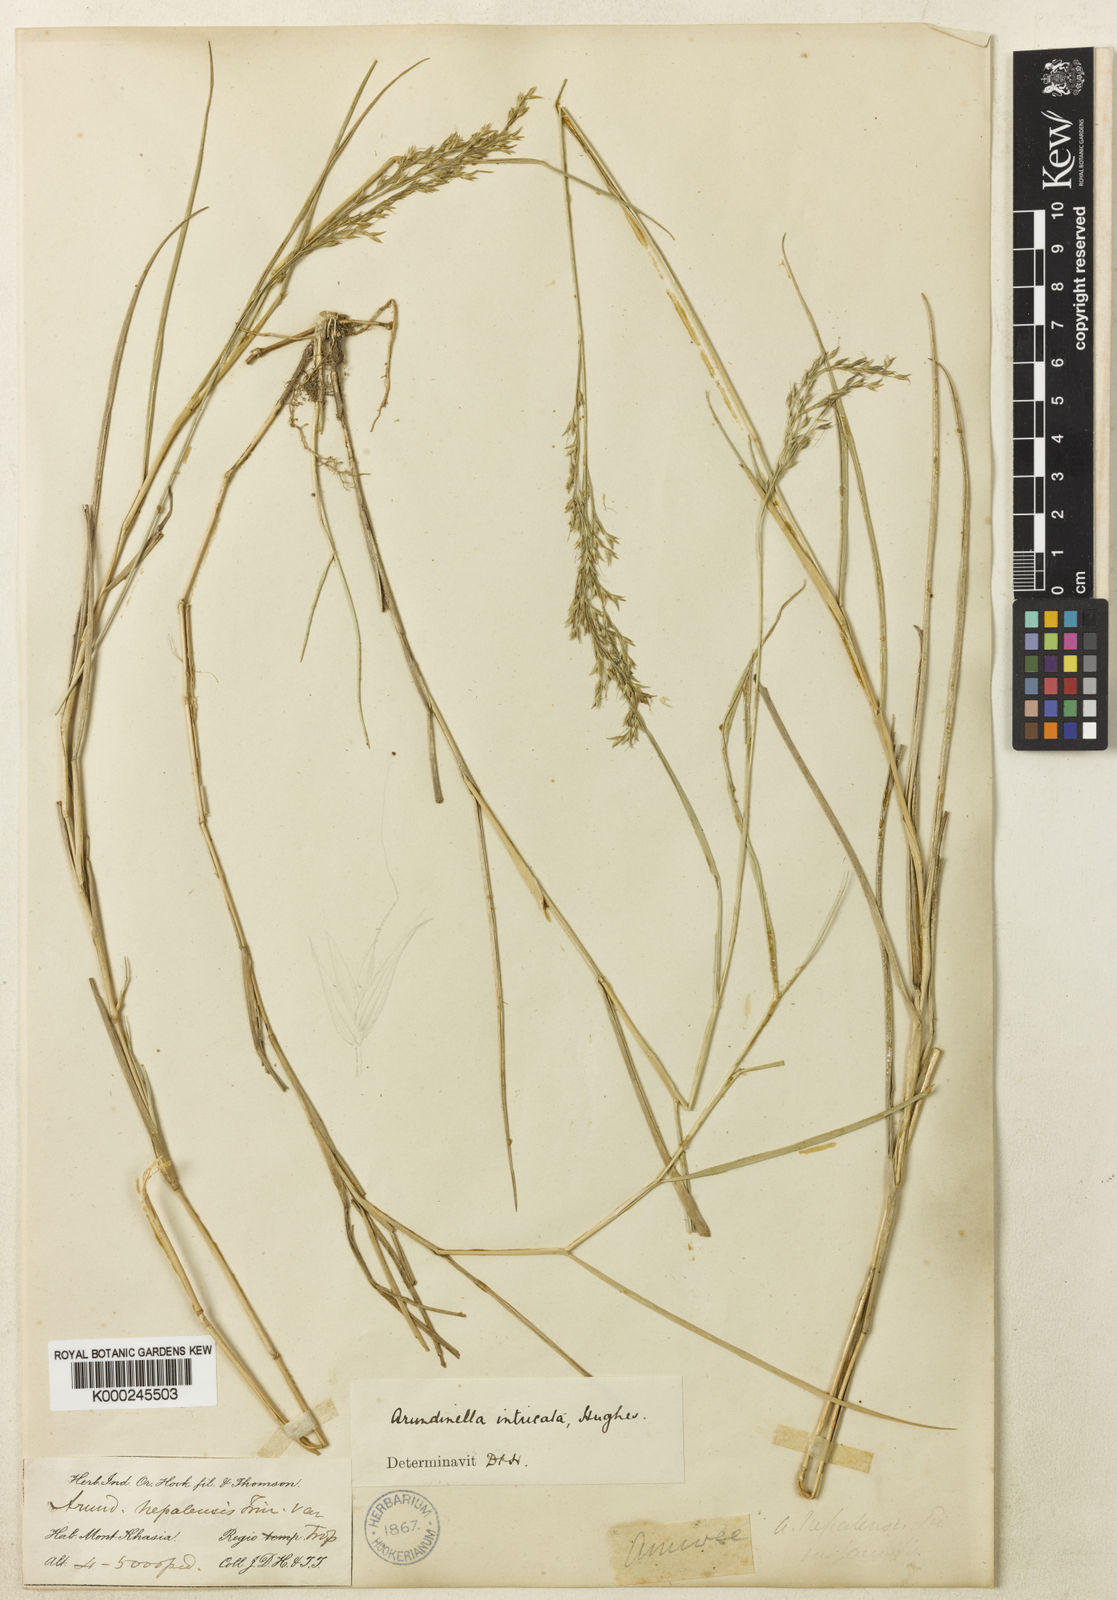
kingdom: Plantae
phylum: Tracheophyta
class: Liliopsida
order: Poales
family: Poaceae
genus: Arundinella
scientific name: Arundinella intricata
